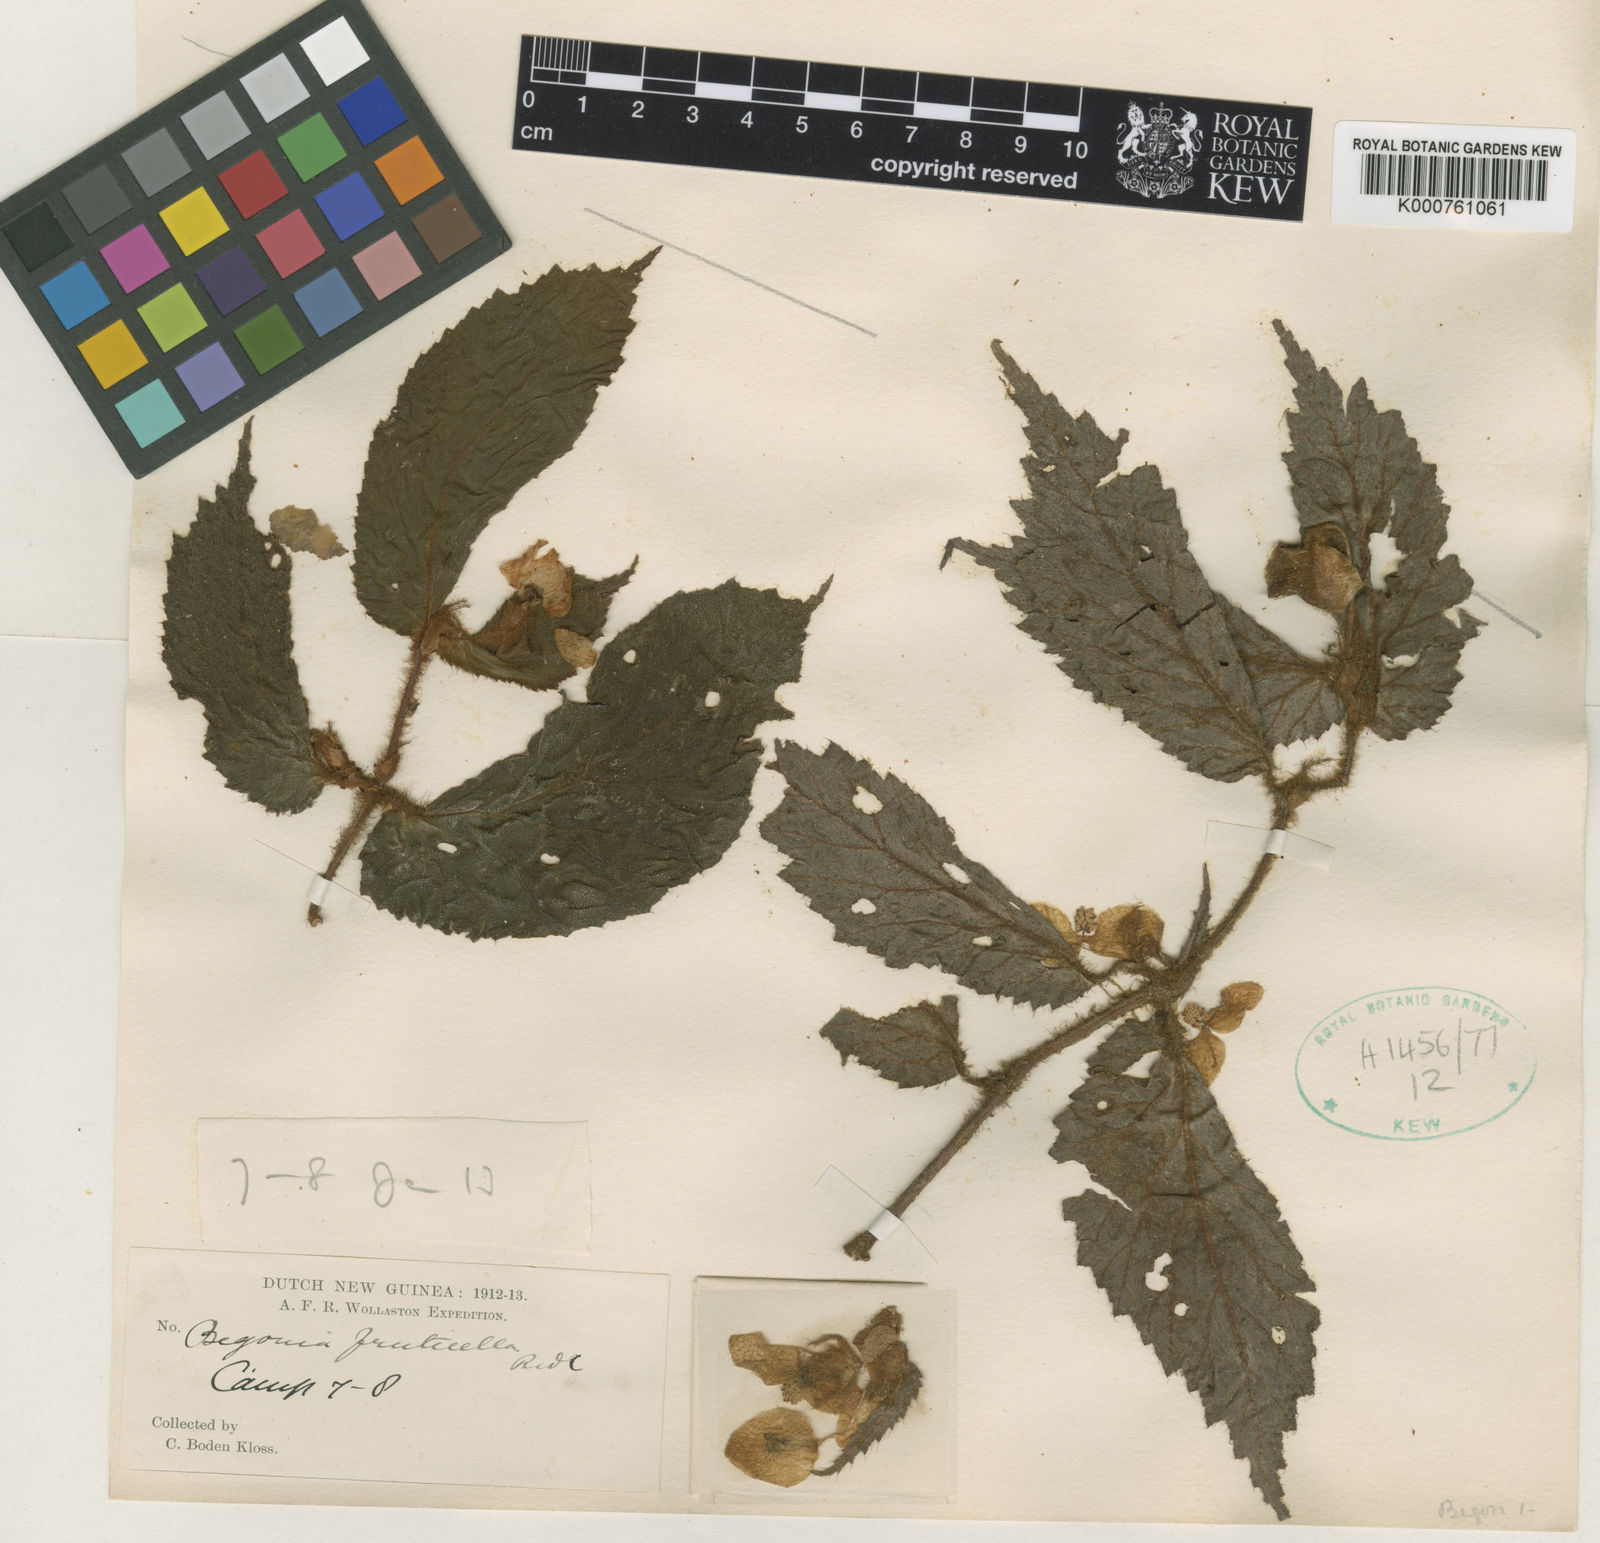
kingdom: Plantae
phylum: Tracheophyta
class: Magnoliopsida
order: Cucurbitales
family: Begoniaceae
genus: Begonia
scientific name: Begonia fruticella
